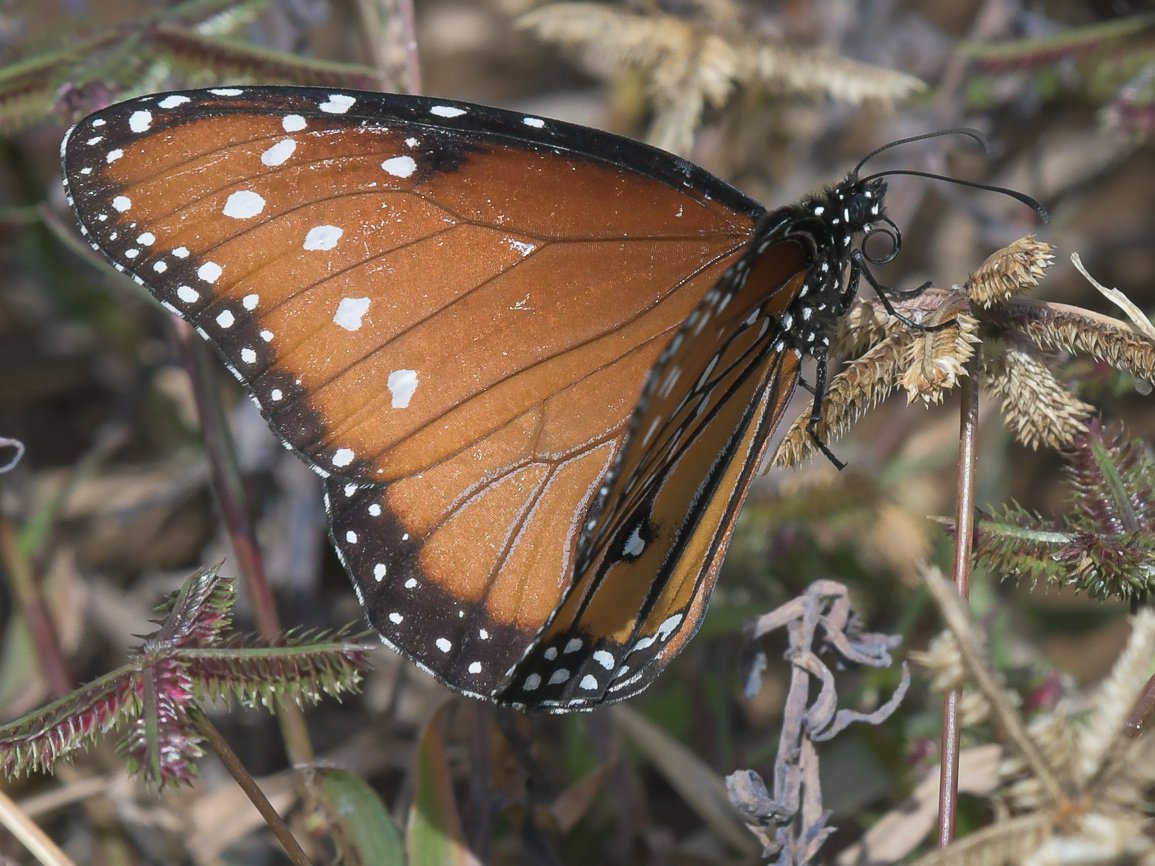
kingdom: Animalia
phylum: Arthropoda
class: Insecta
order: Lepidoptera
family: Nymphalidae
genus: Danaus
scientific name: Danaus gilippus
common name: Queen
